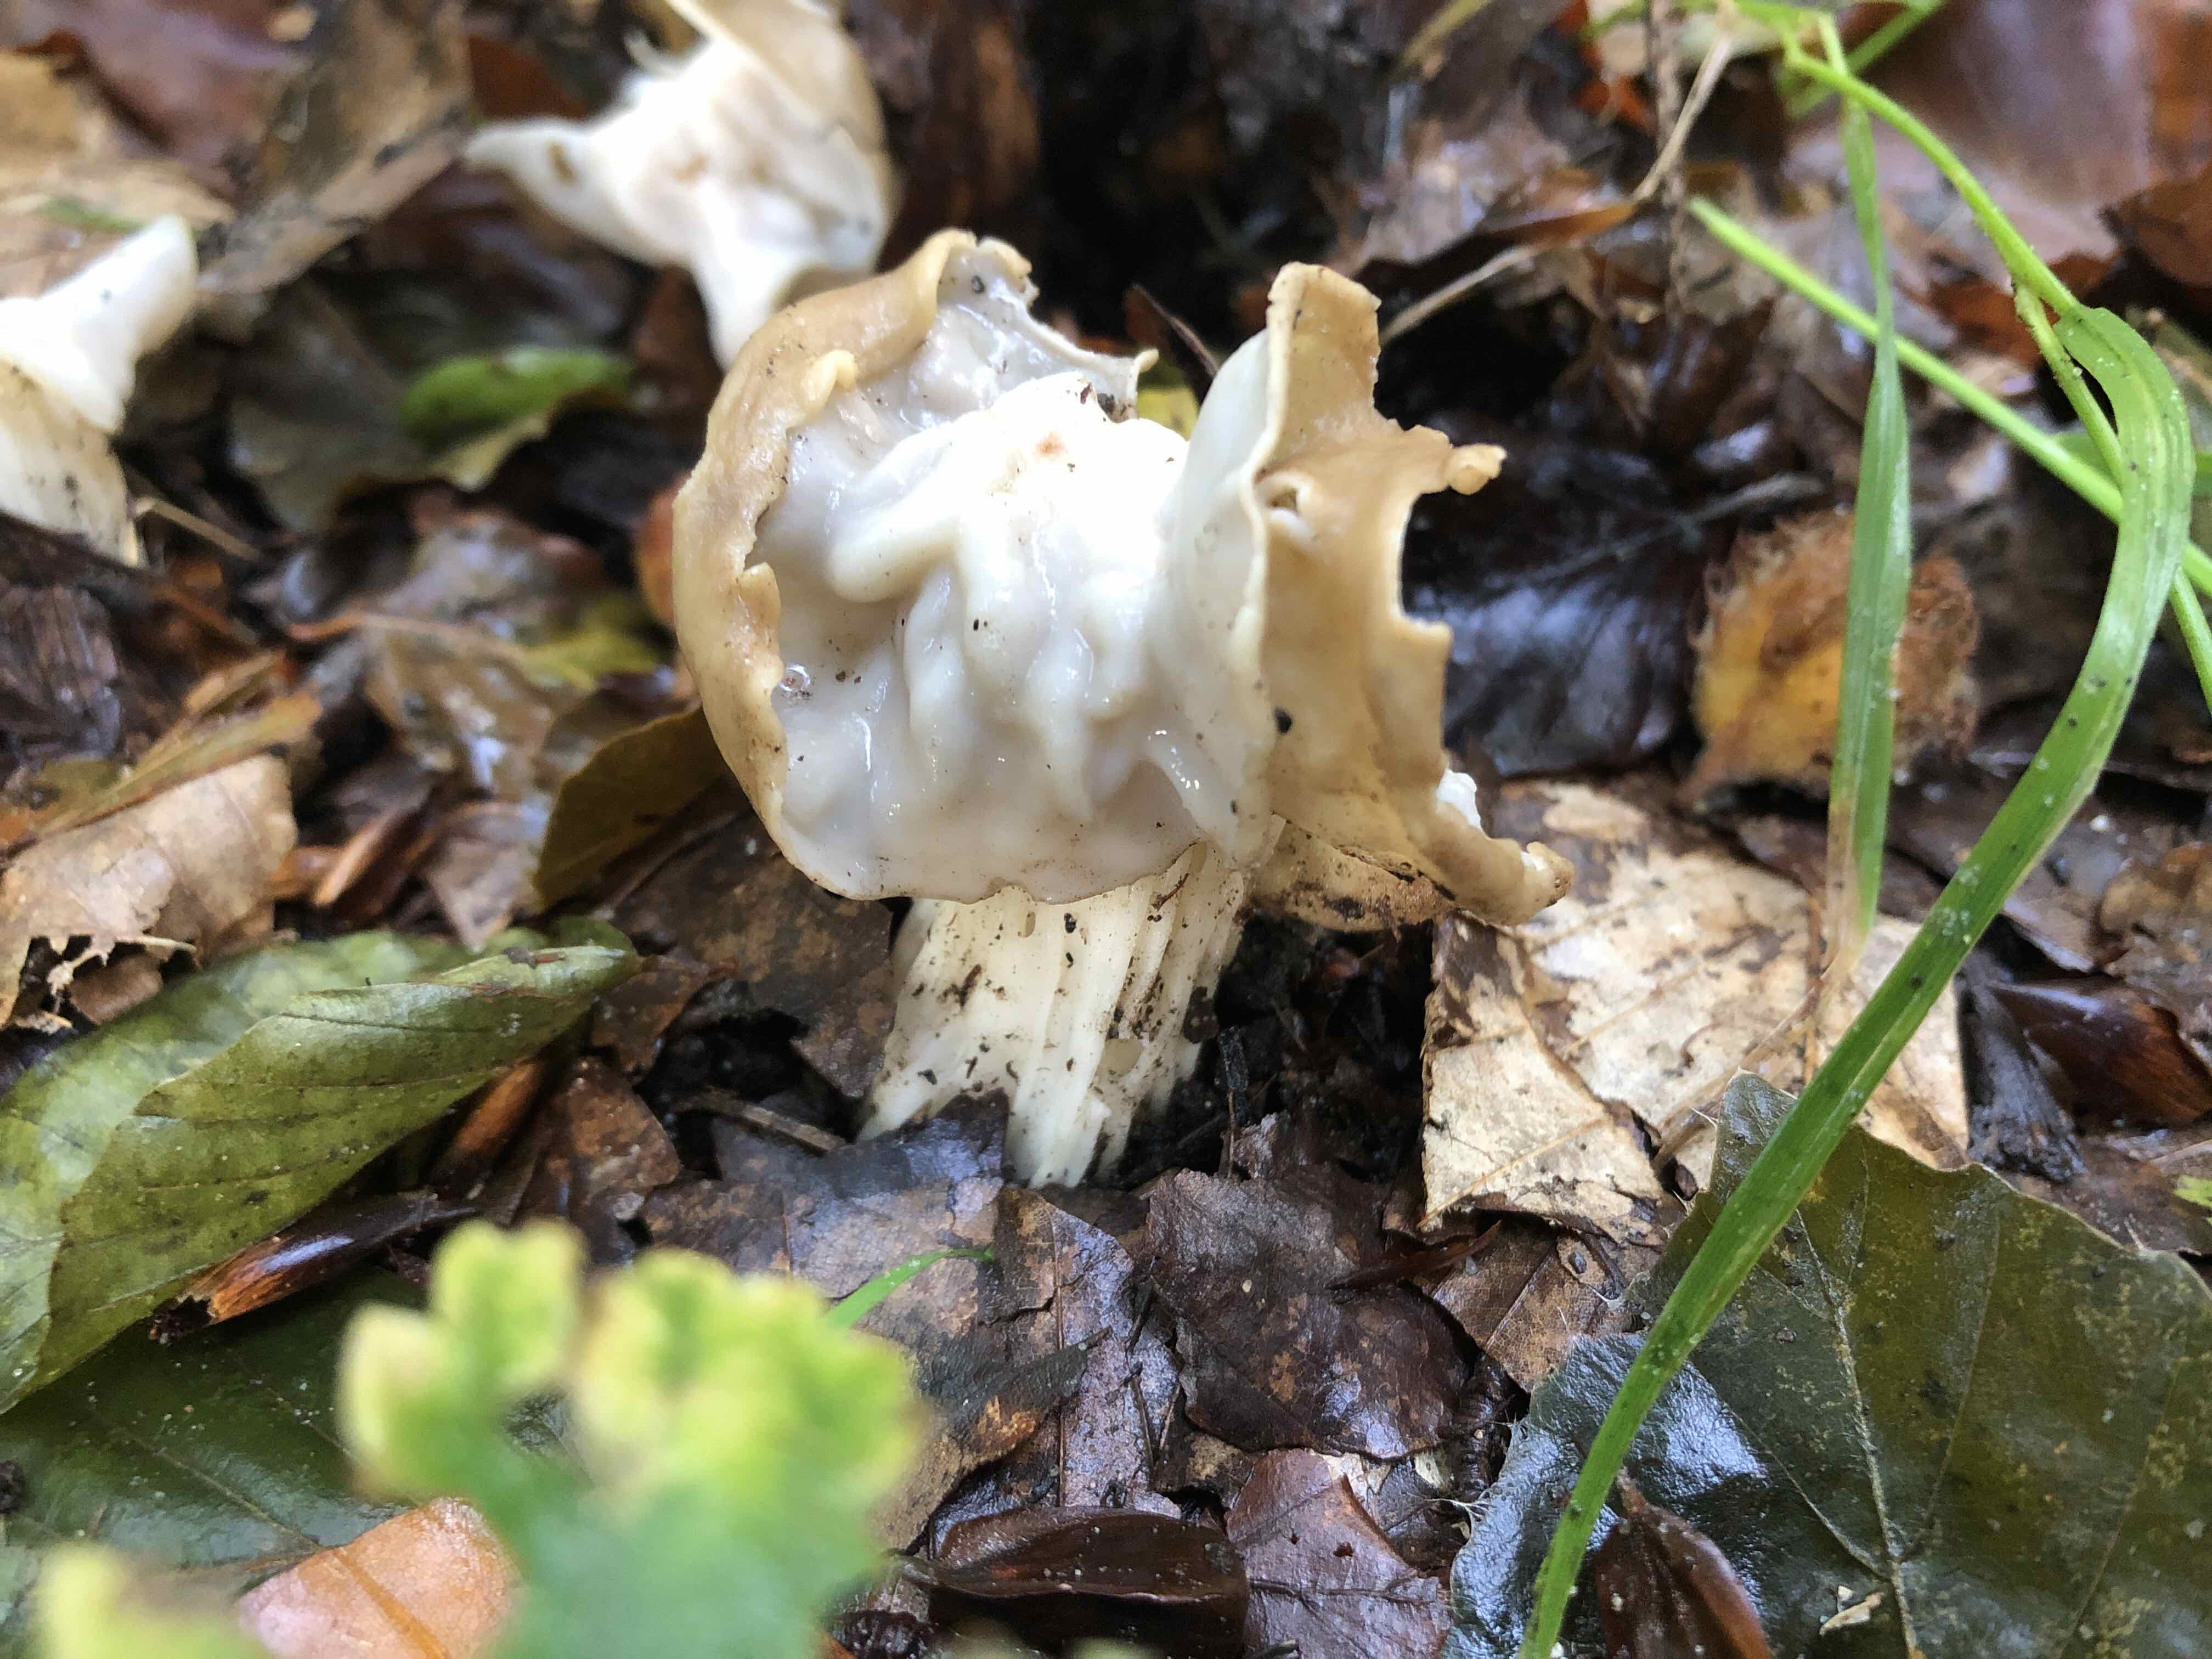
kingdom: Fungi
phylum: Ascomycota
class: Pezizomycetes
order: Pezizales
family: Helvellaceae
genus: Helvella
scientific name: Helvella crispa
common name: kruset foldhat
